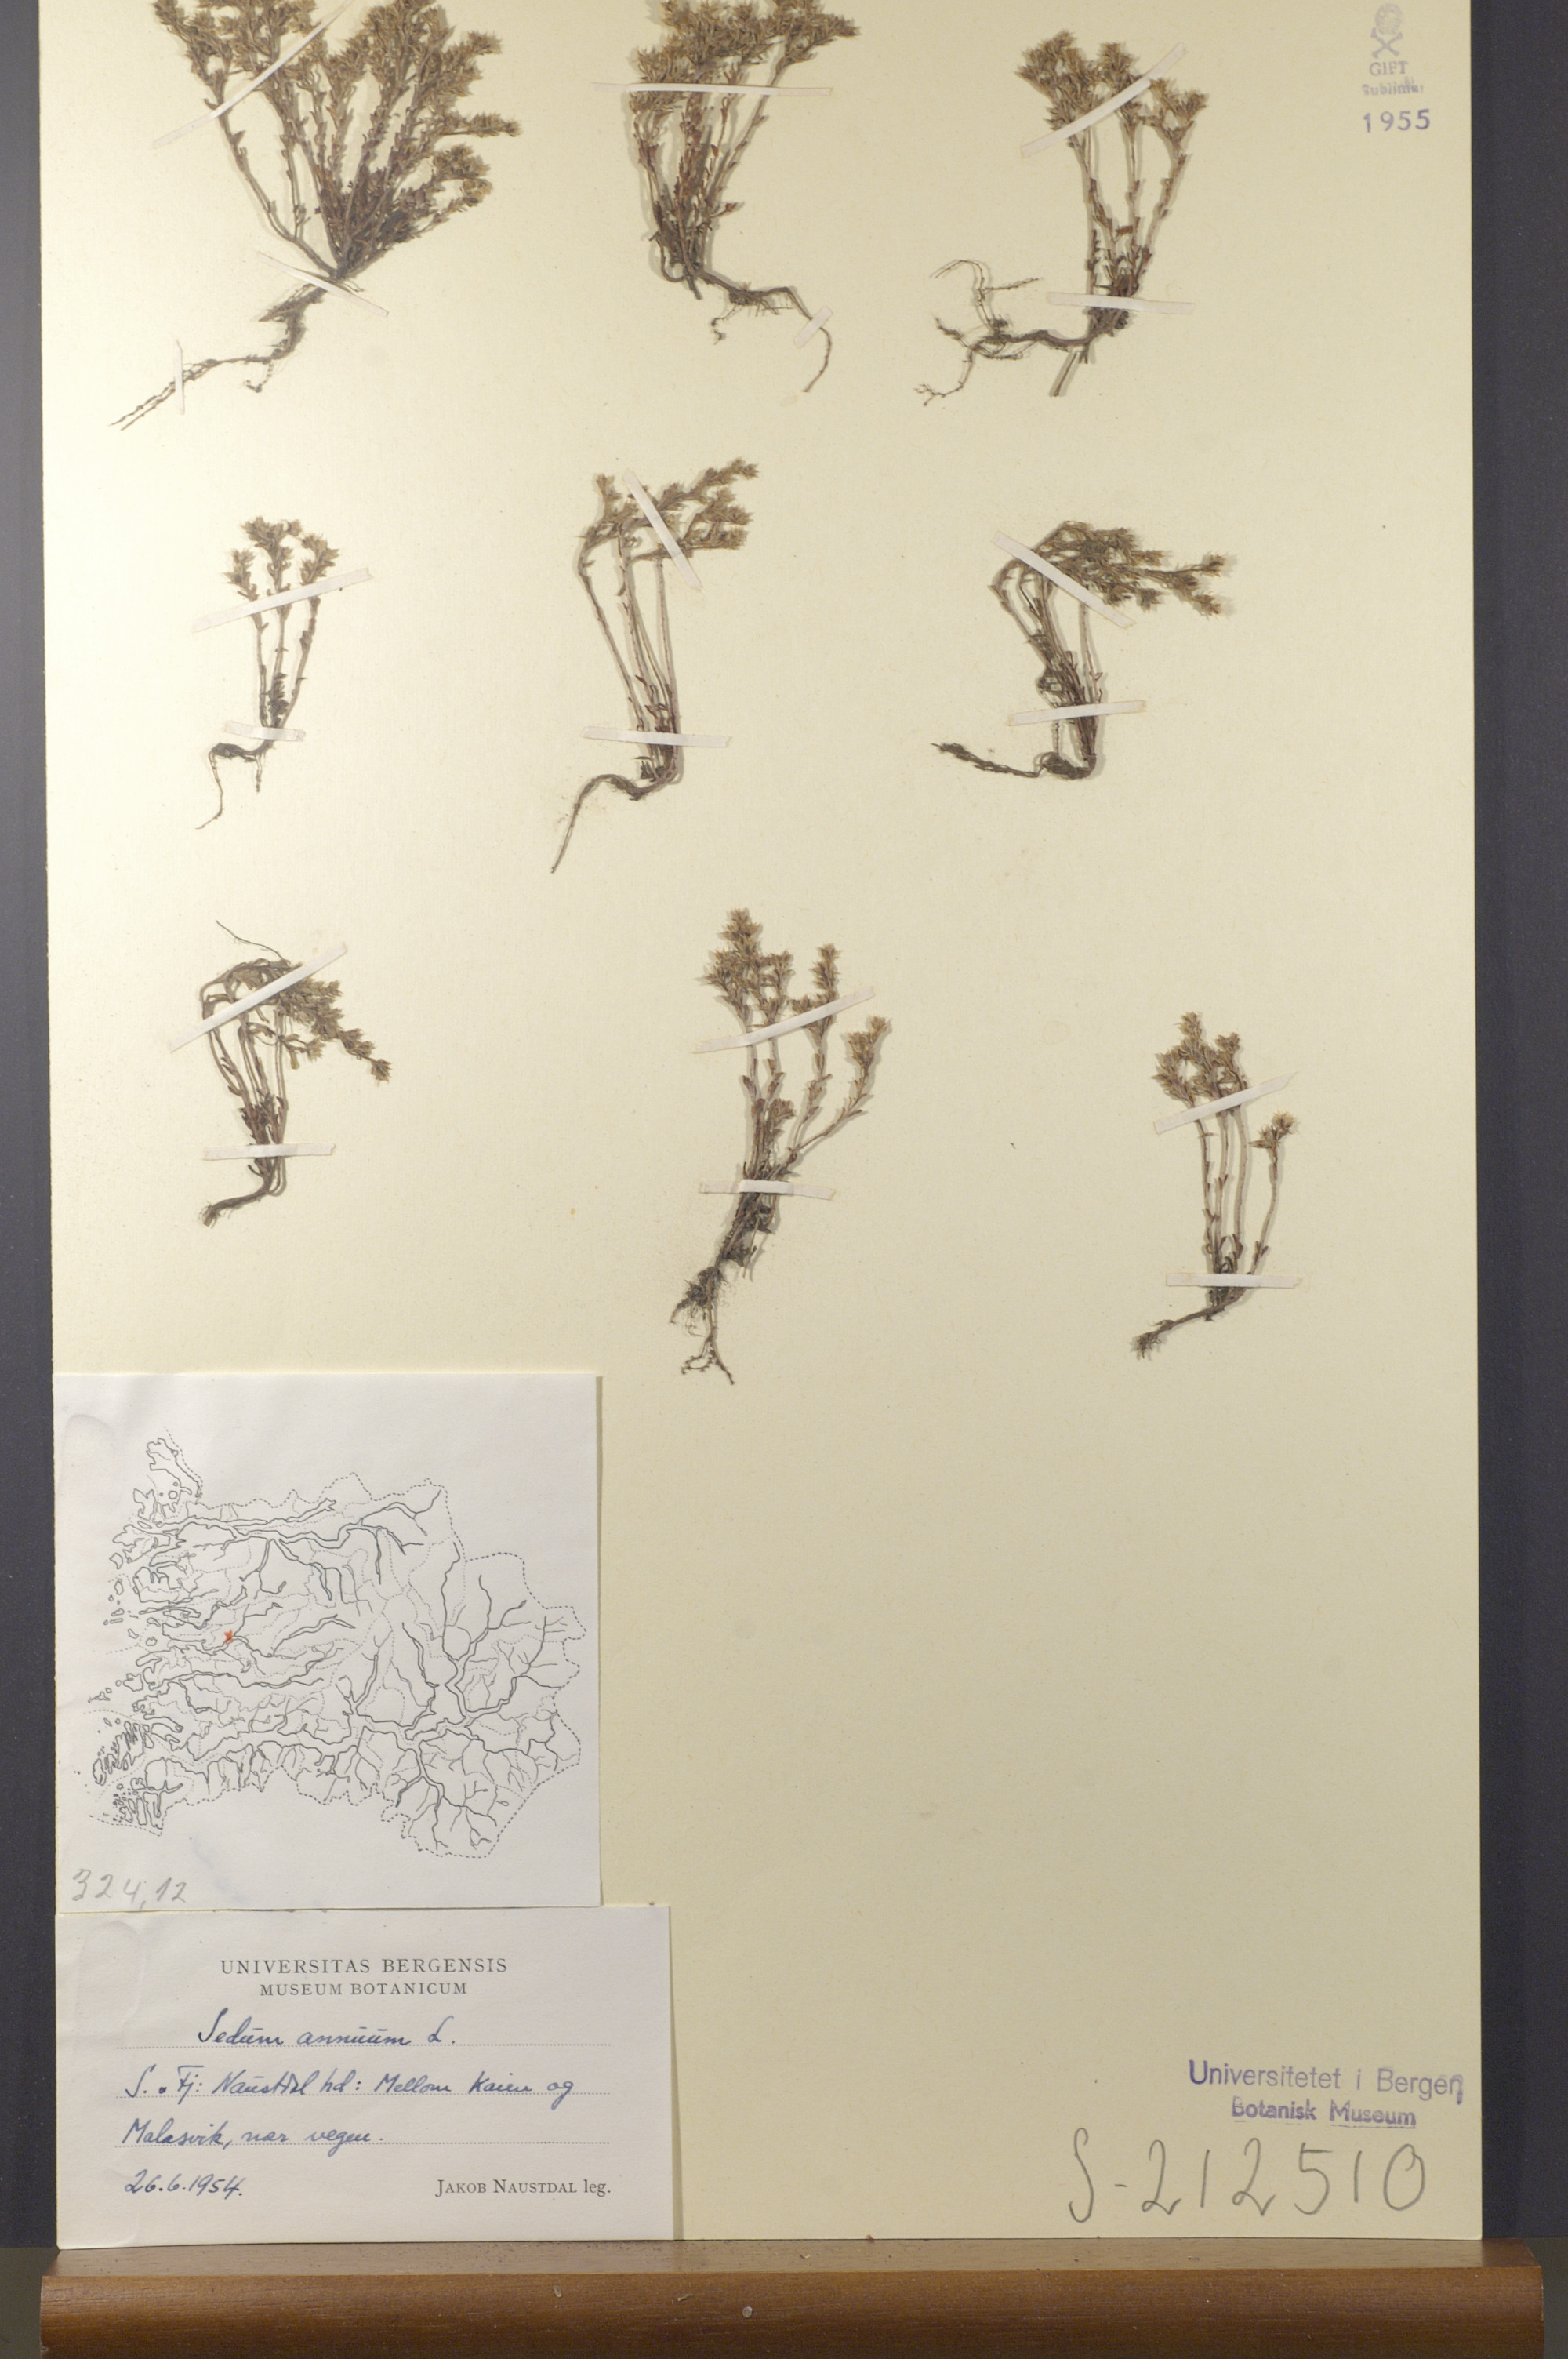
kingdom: Plantae
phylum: Tracheophyta
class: Magnoliopsida
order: Saxifragales
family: Crassulaceae
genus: Sedum
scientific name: Sedum annuum
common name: Annual stonecrop
